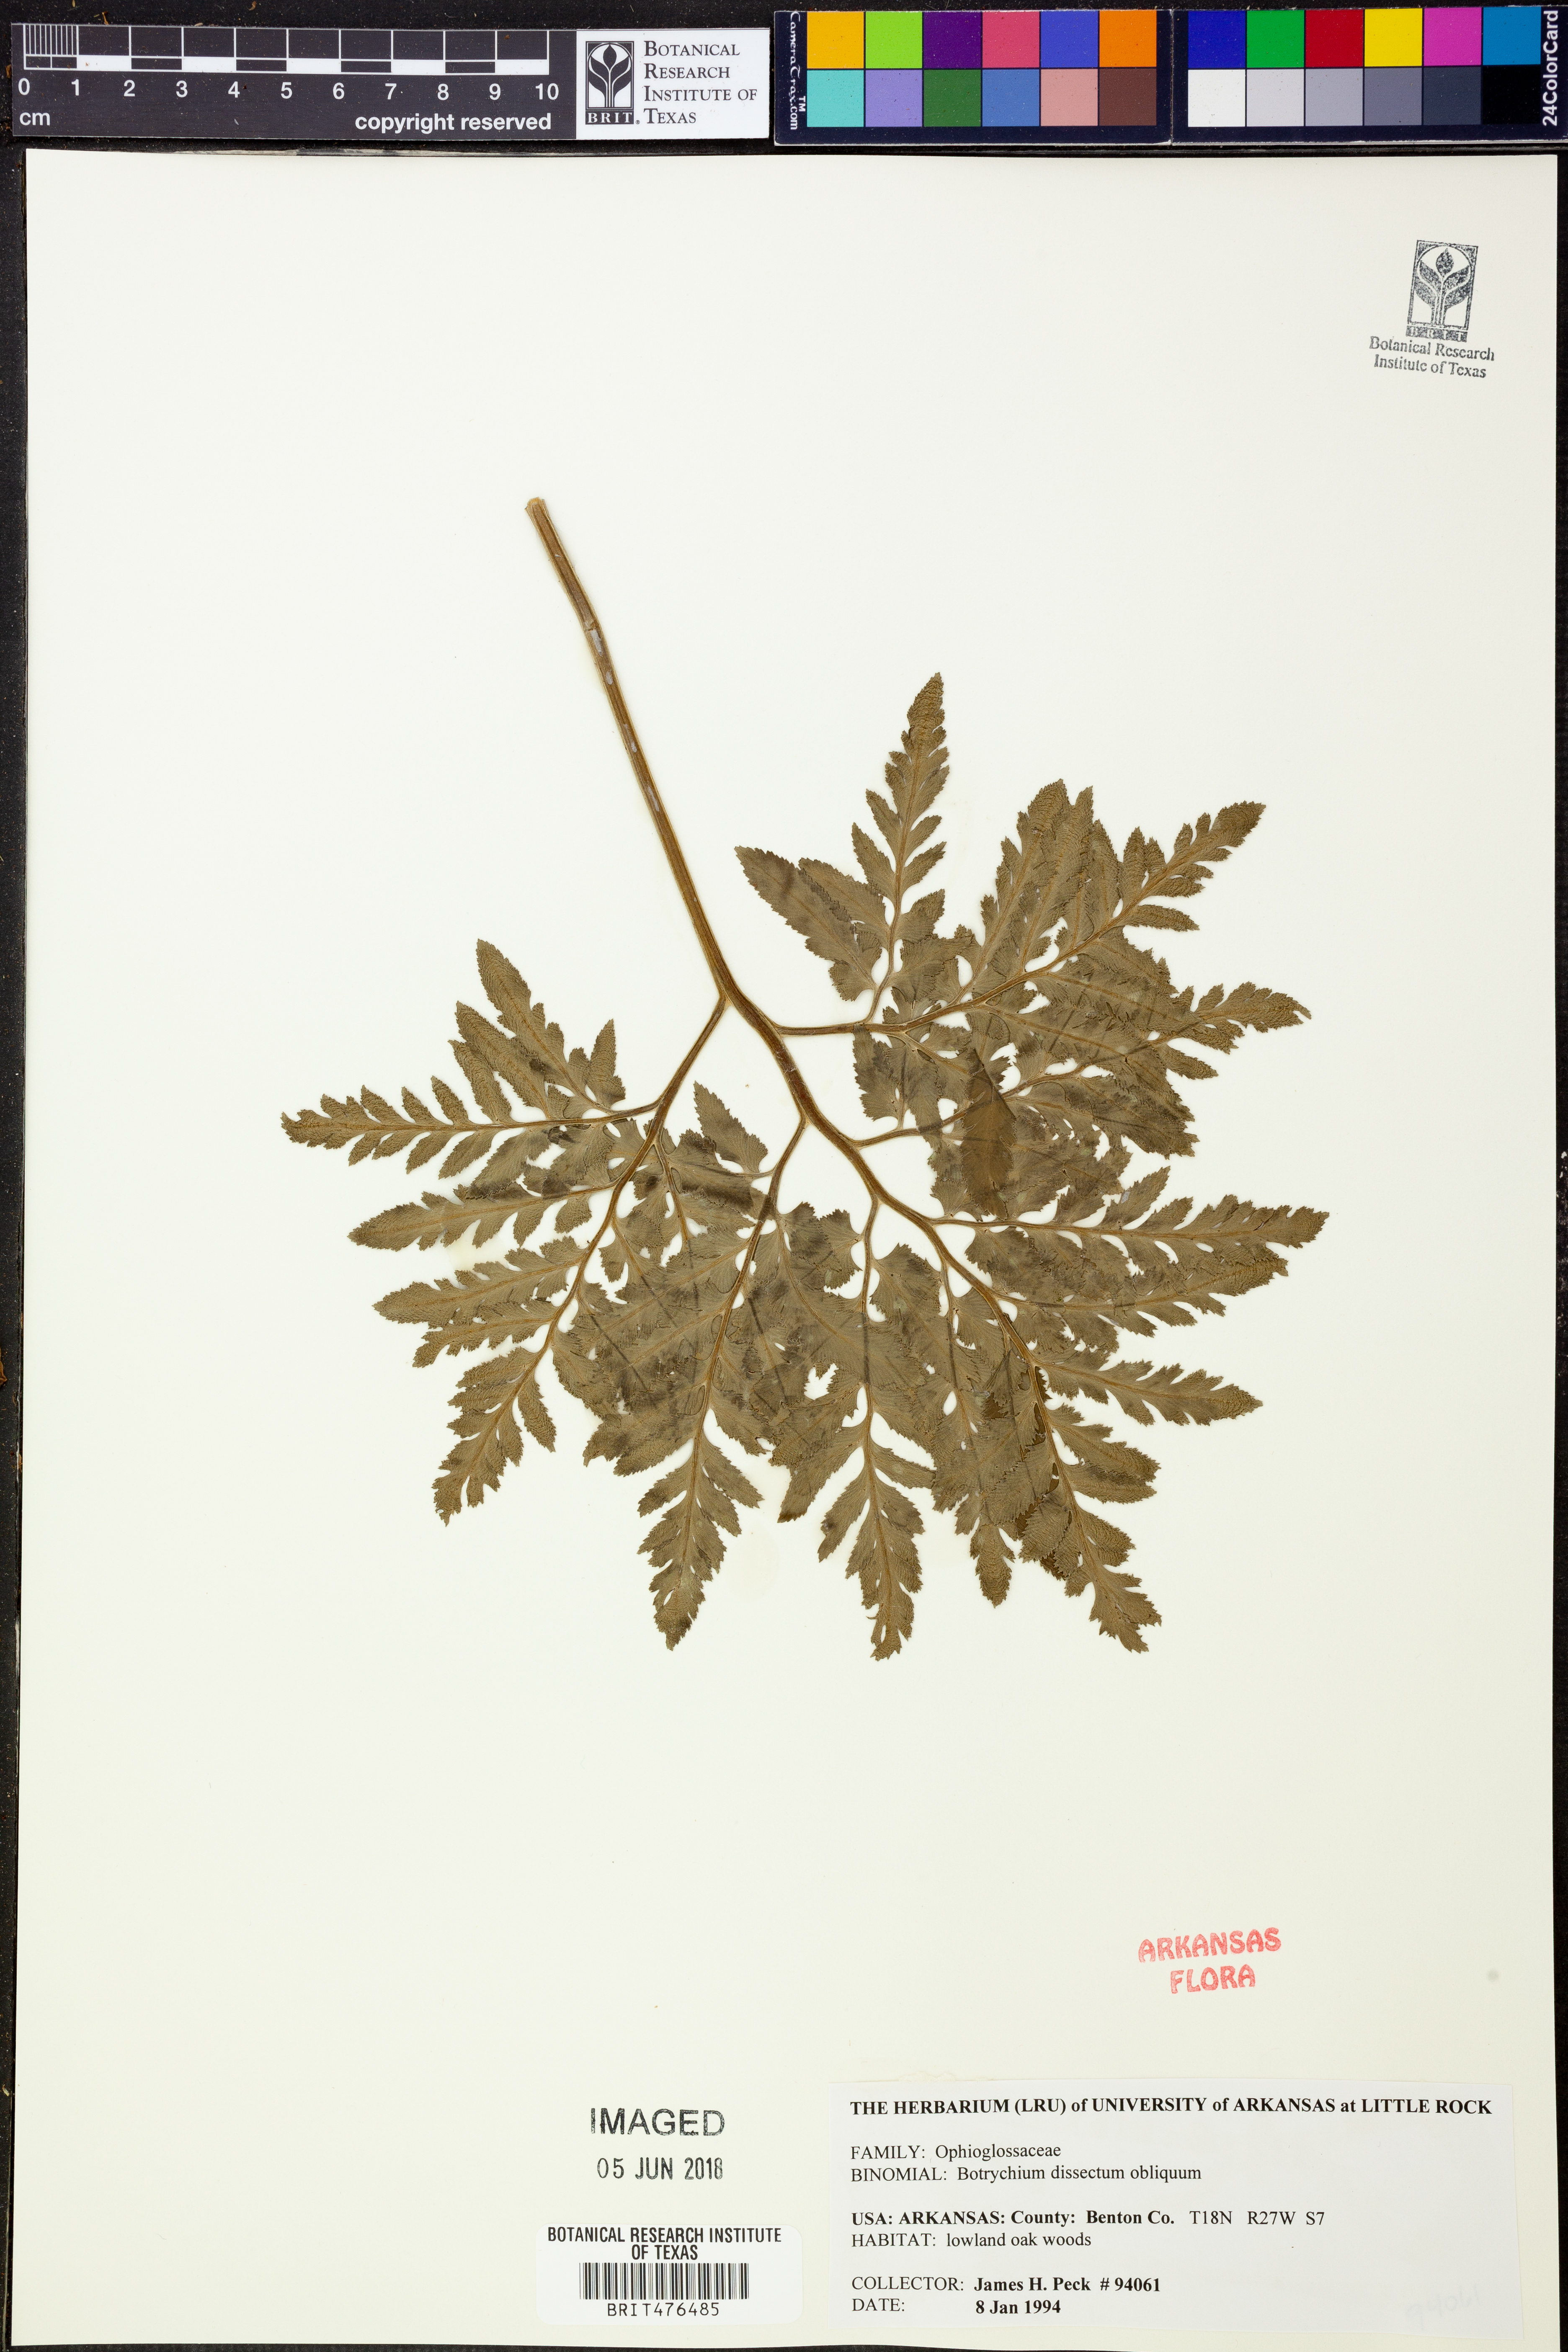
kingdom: Plantae
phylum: Tracheophyta
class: Polypodiopsida
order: Ophioglossales
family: Ophioglossaceae
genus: Sceptridium
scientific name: Sceptridium dissectum
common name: Cut-leaved grapefern
